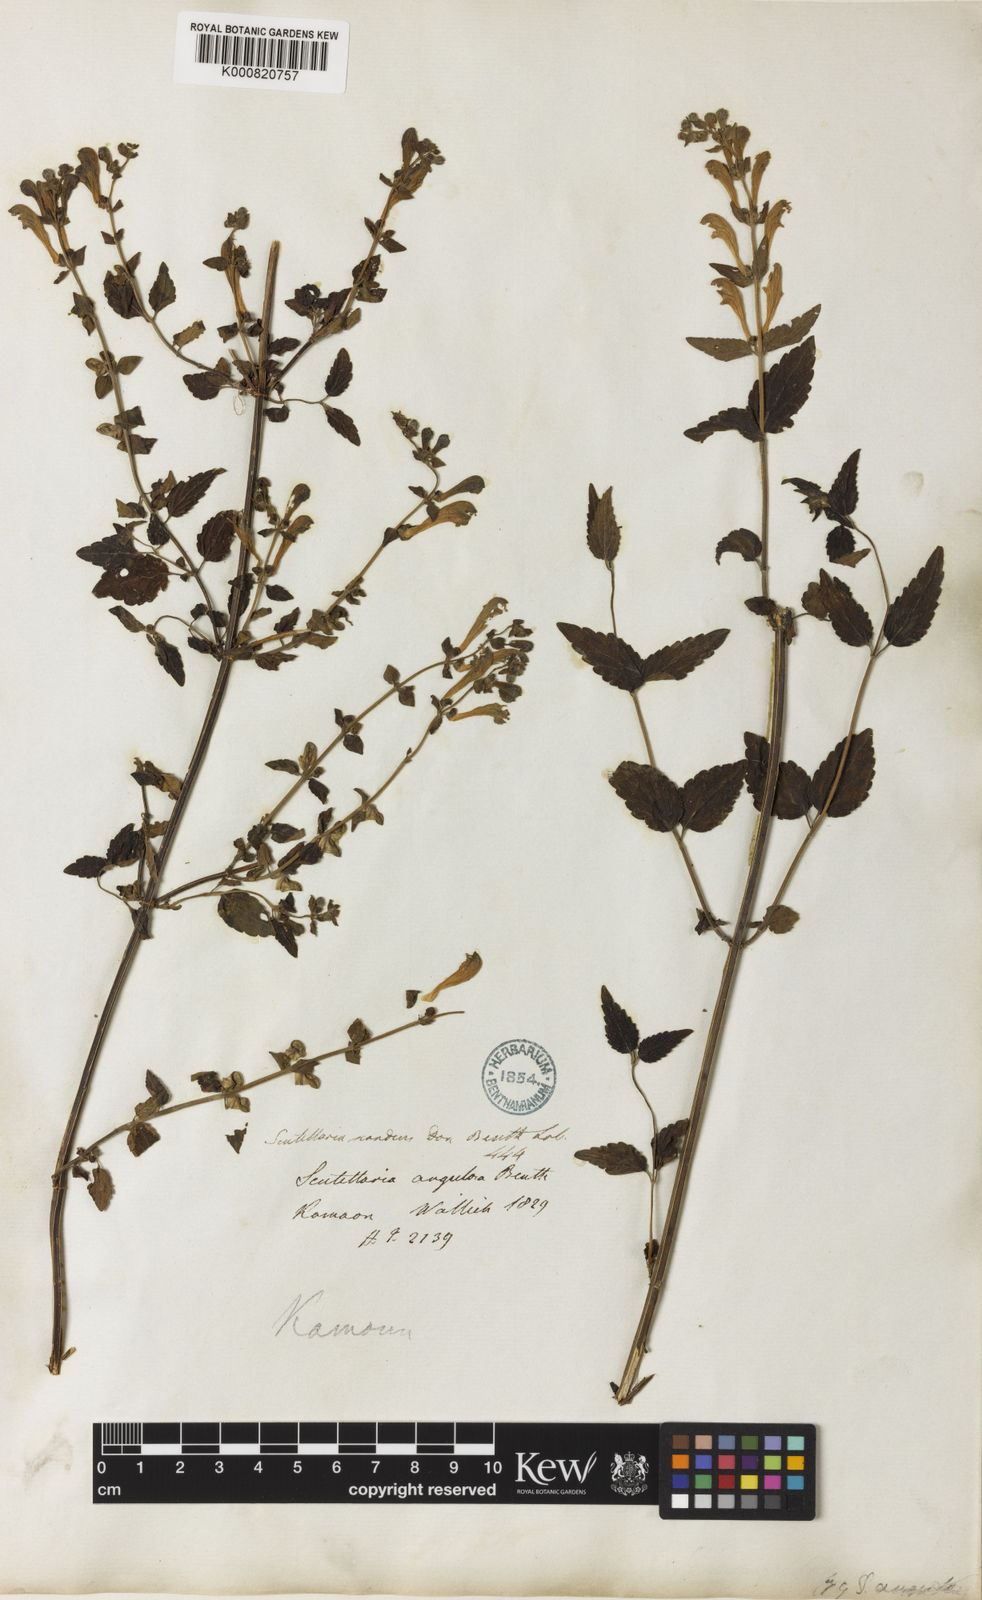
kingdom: Plantae
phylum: Tracheophyta
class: Magnoliopsida
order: Lamiales
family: Lamiaceae
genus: Scutellaria
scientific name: Scutellaria scandens
